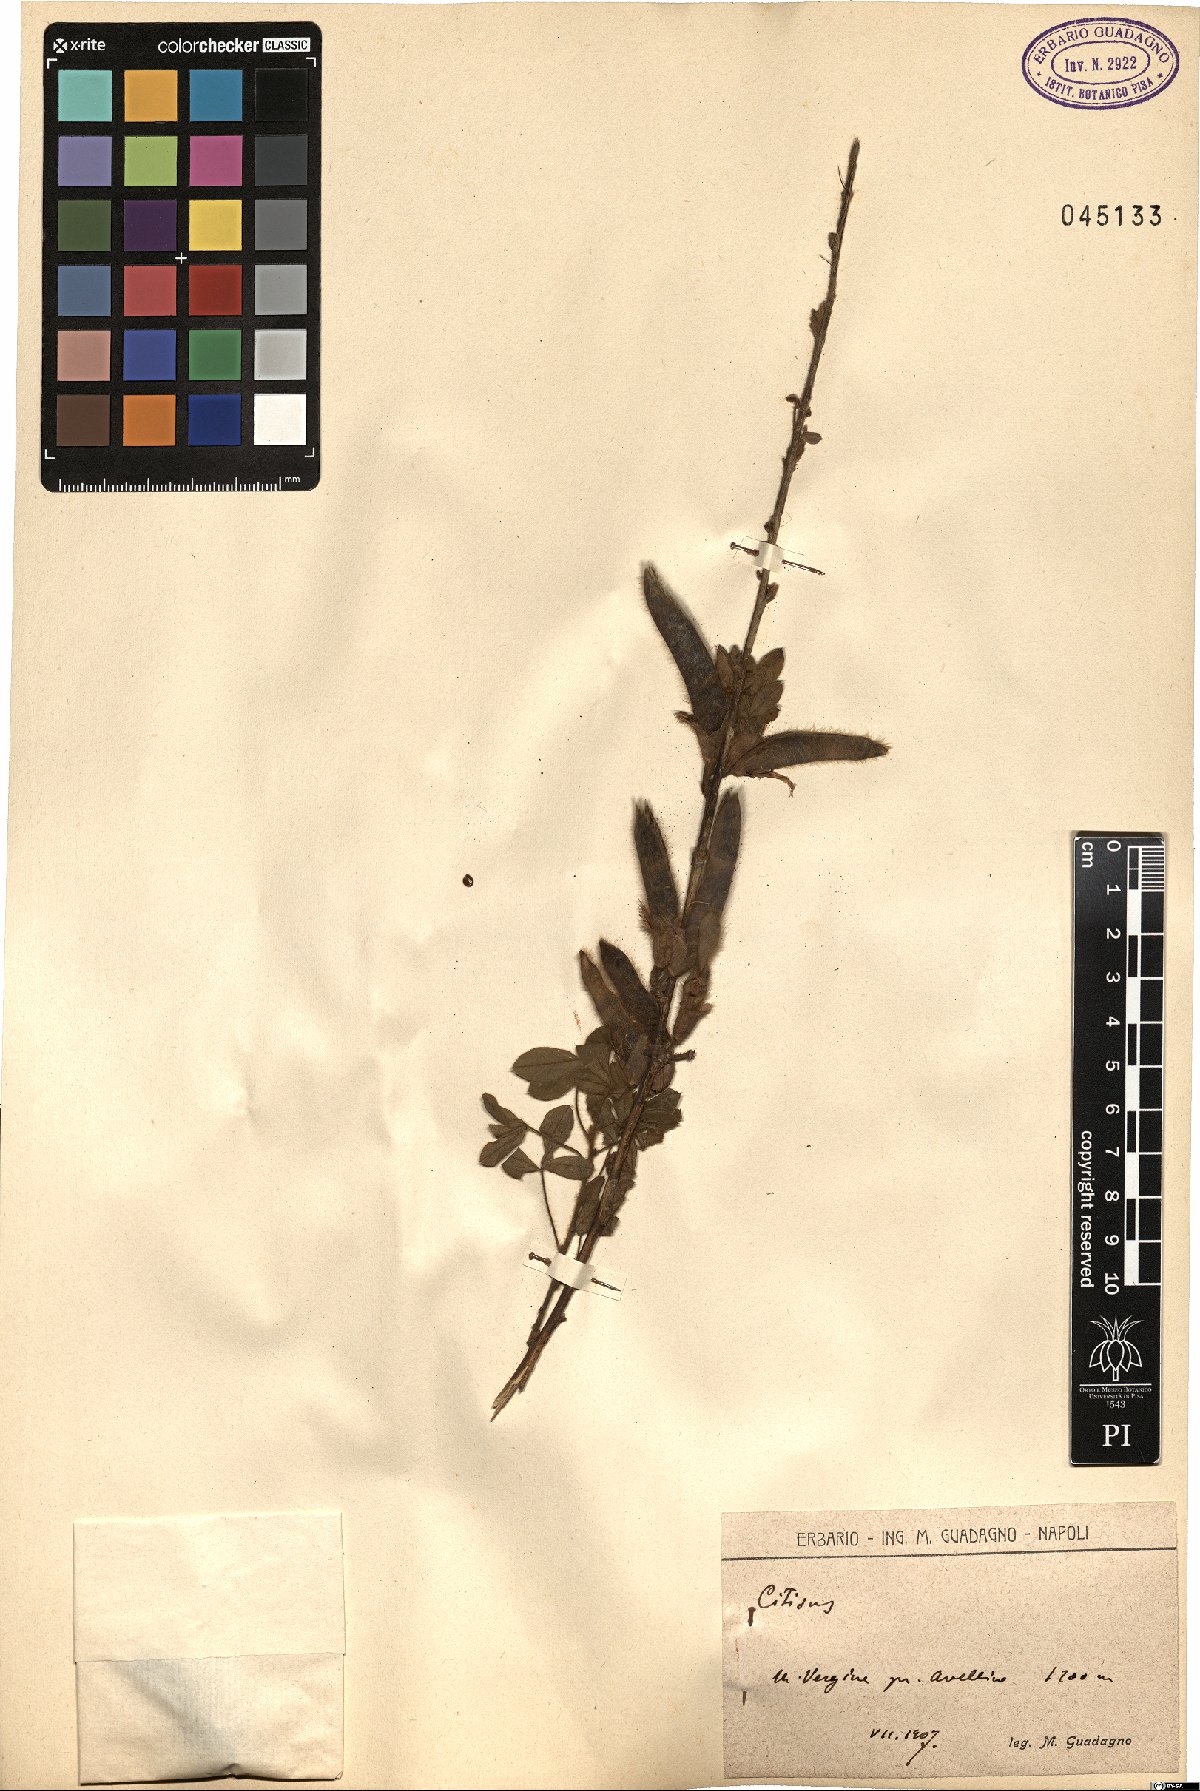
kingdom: Plantae
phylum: Tracheophyta
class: Magnoliopsida
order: Fabales
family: Fabaceae
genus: Cytisus
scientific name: Cytisus
